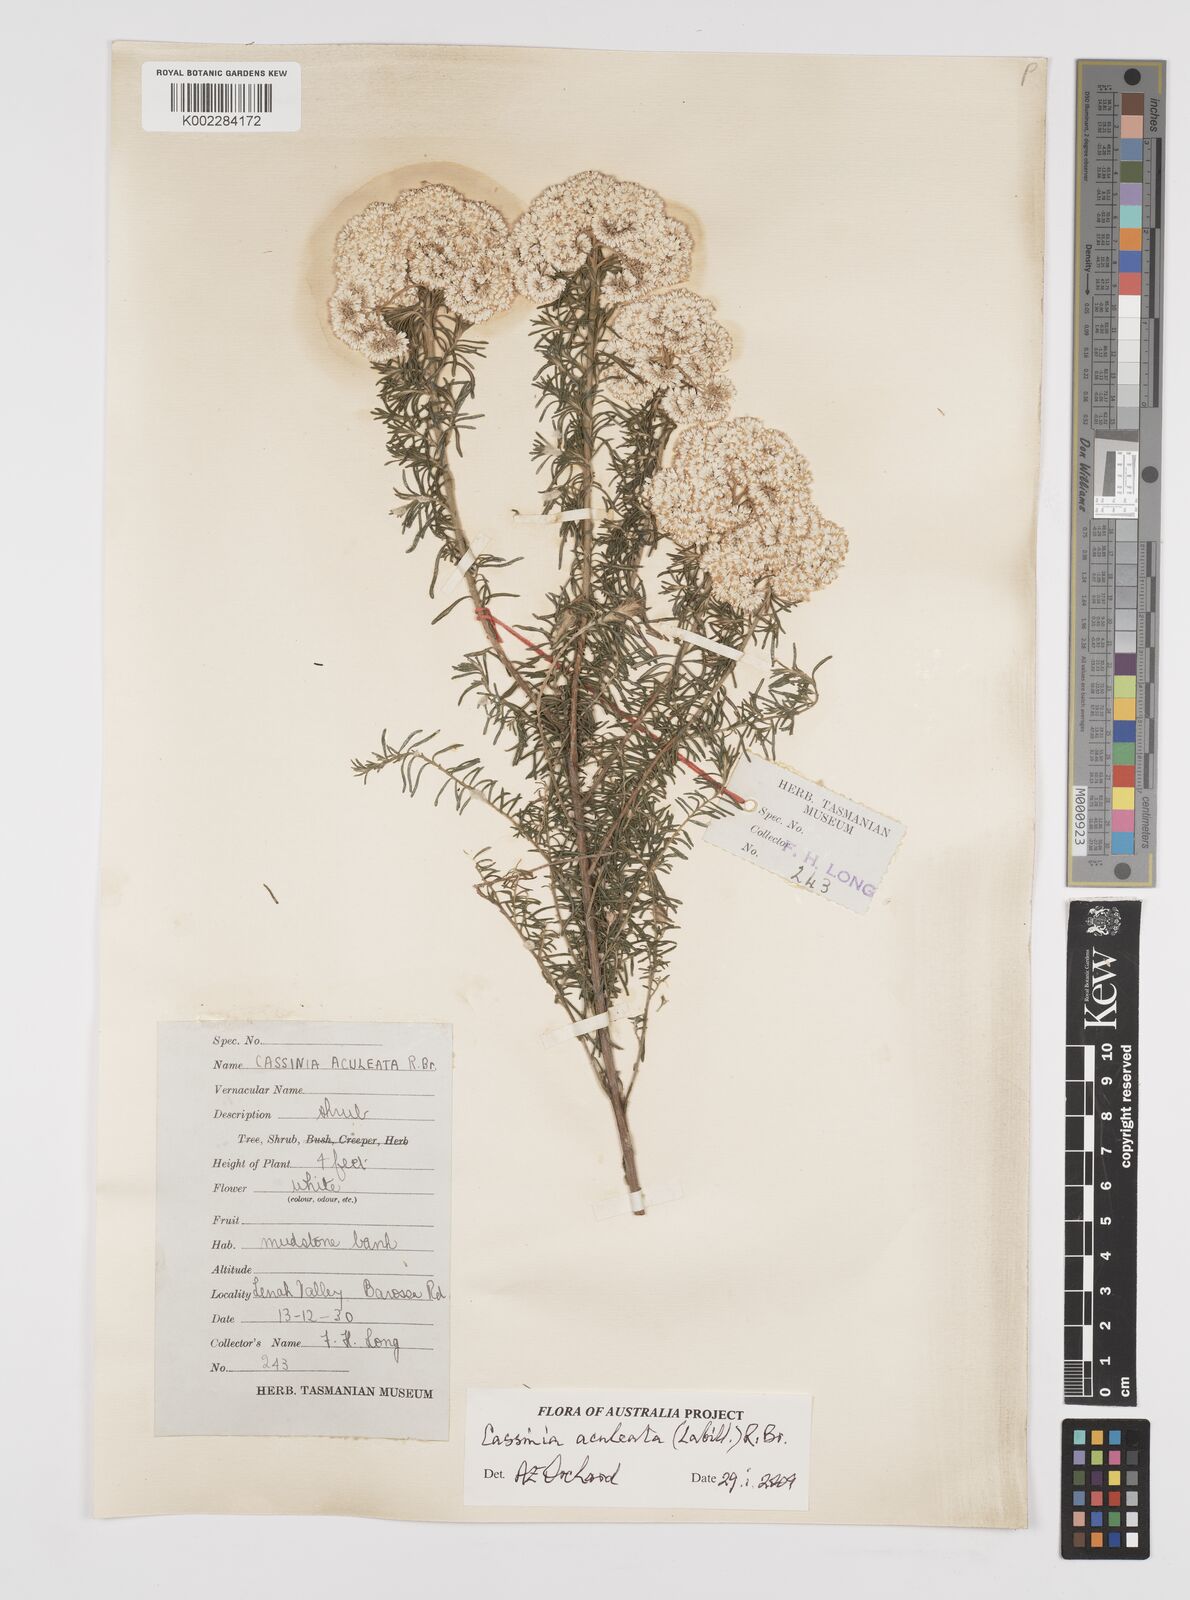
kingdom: Plantae
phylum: Tracheophyta
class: Magnoliopsida
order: Asterales
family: Asteraceae
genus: Cassinia
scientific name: Cassinia aculeata
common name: Australian tauhinu
